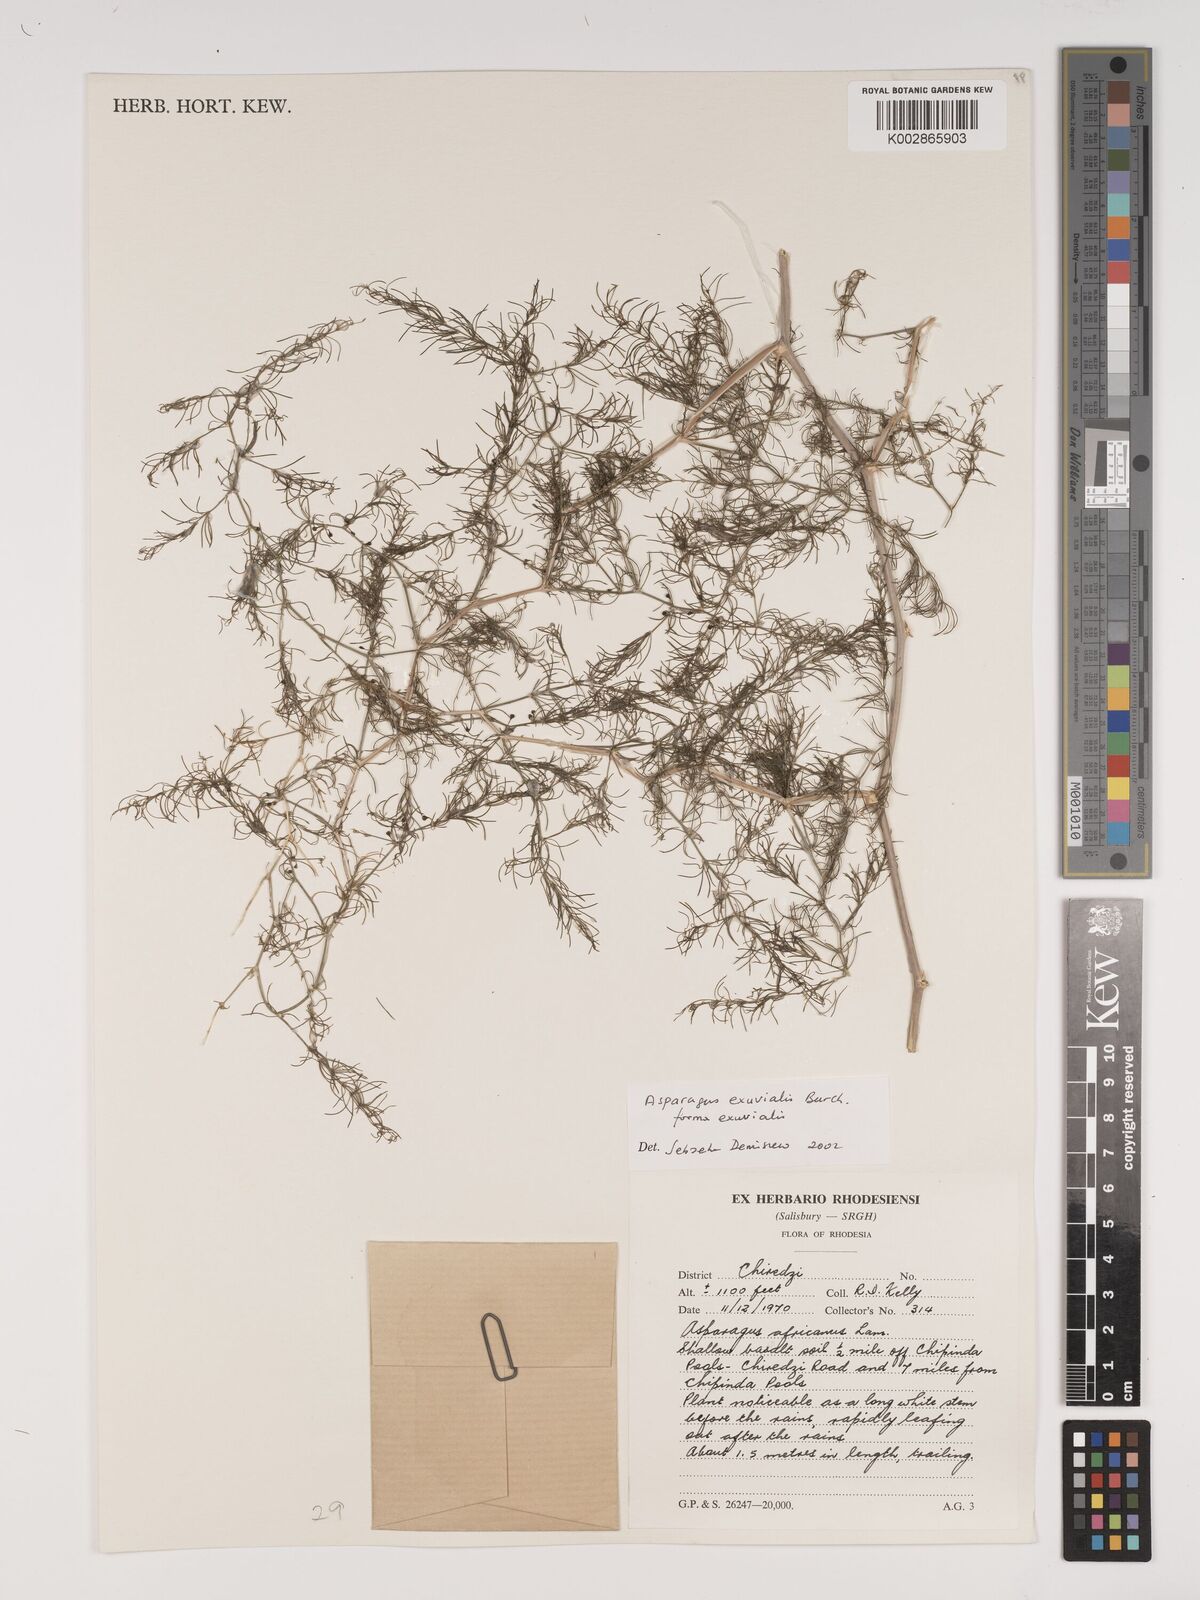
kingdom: Plantae
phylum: Tracheophyta
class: Liliopsida
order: Asparagales
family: Asparagaceae
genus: Asparagus
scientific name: Asparagus exuvialis
